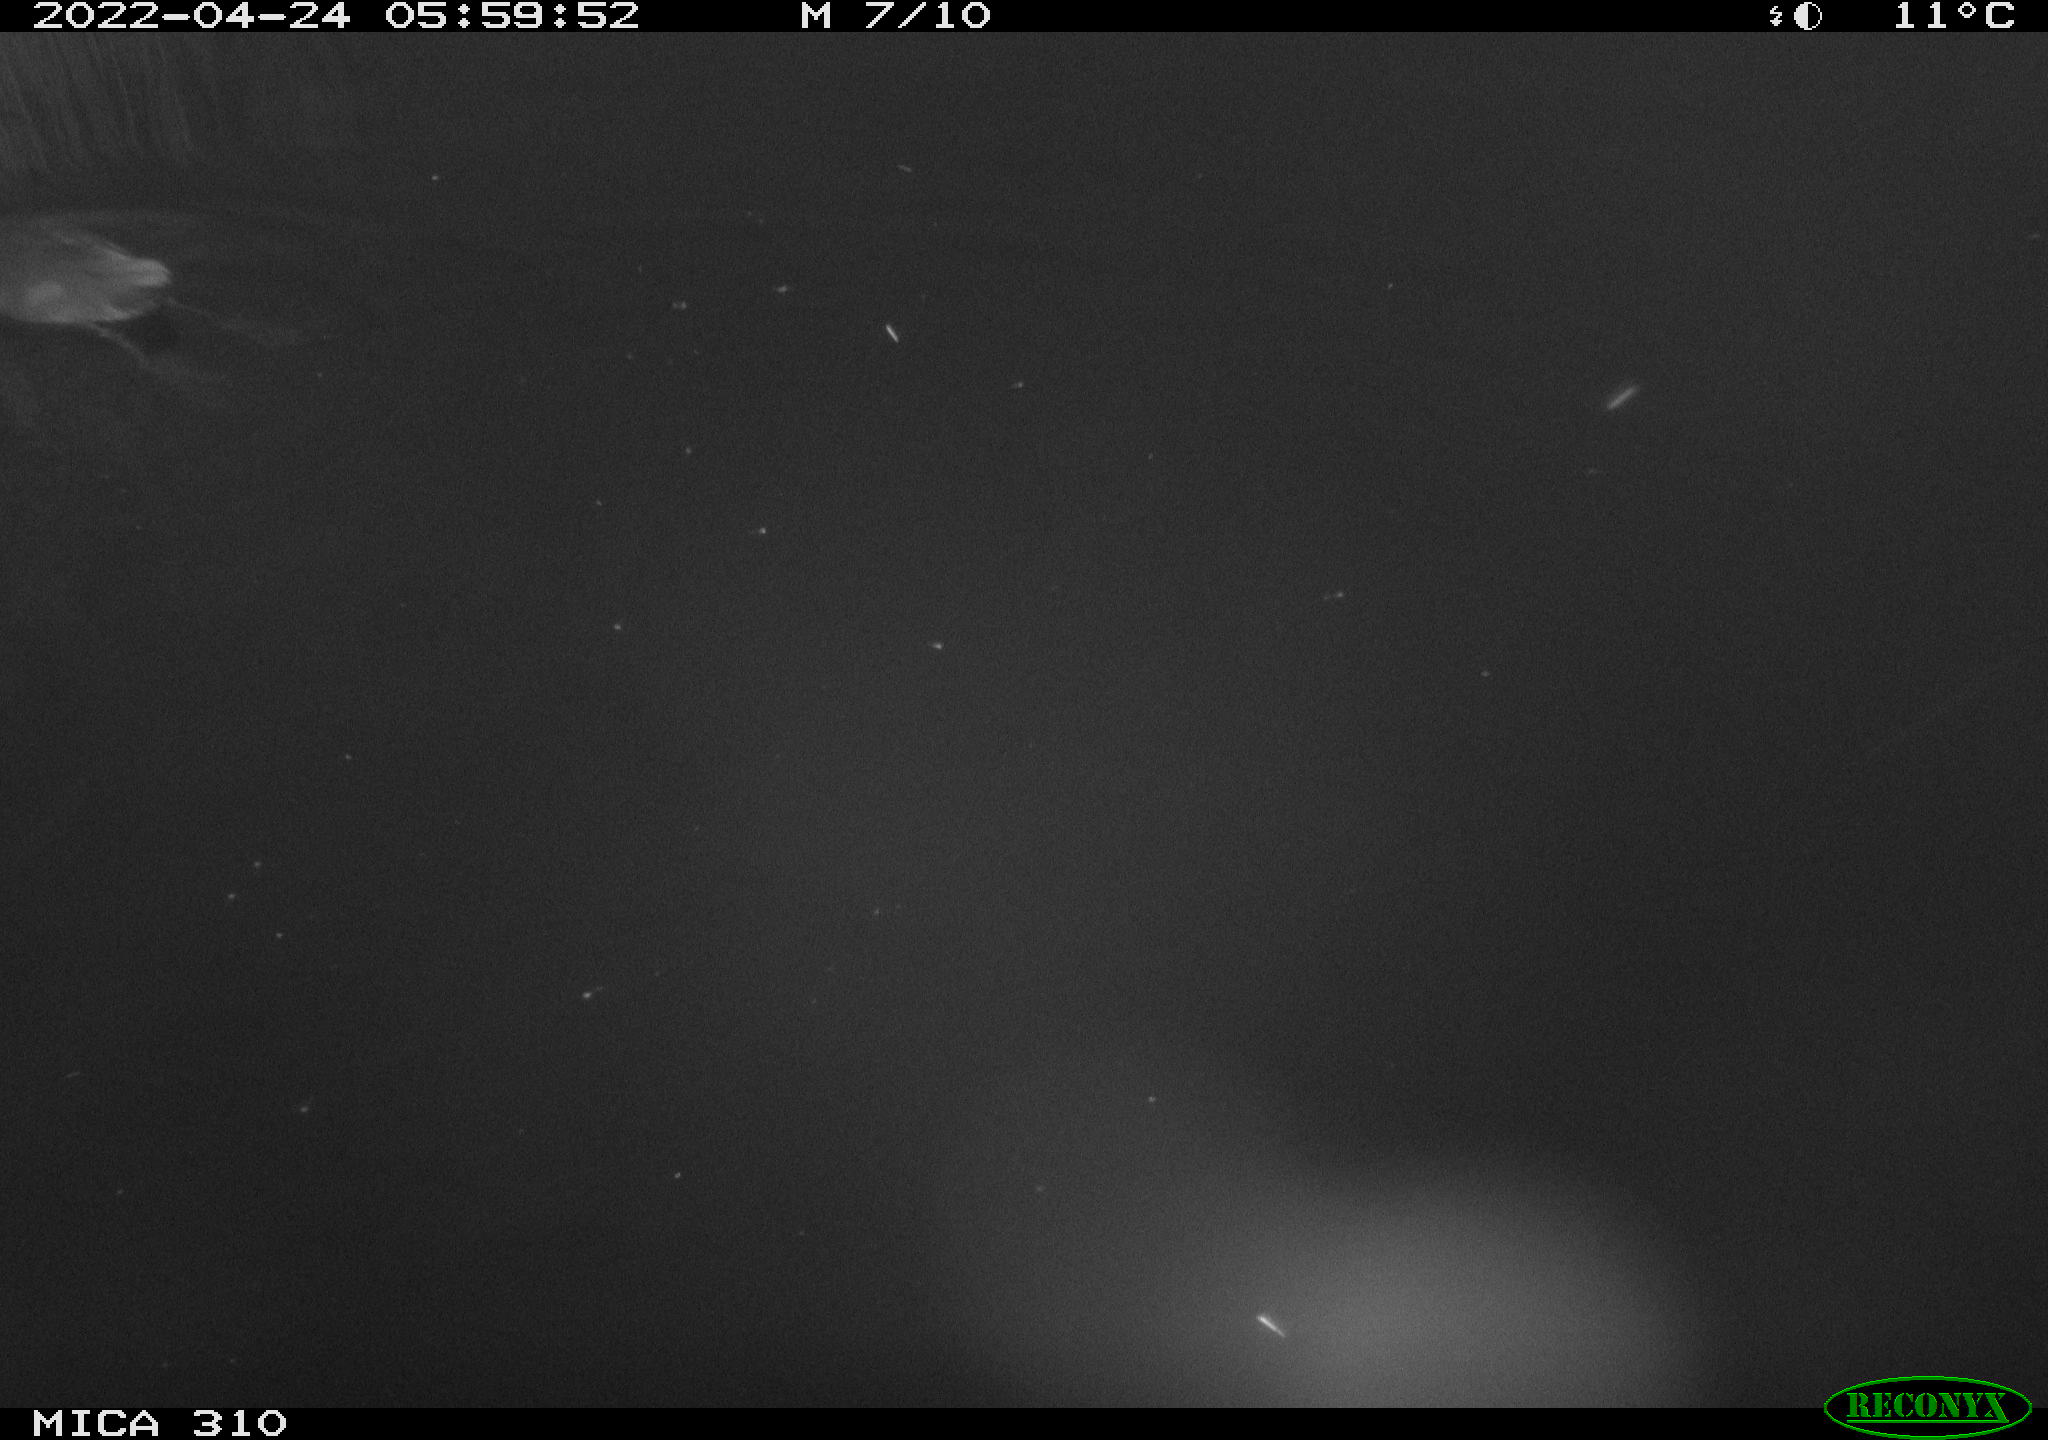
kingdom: Animalia
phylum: Chordata
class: Aves
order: Gruiformes
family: Rallidae
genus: Fulica
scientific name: Fulica atra
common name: Eurasian coot
